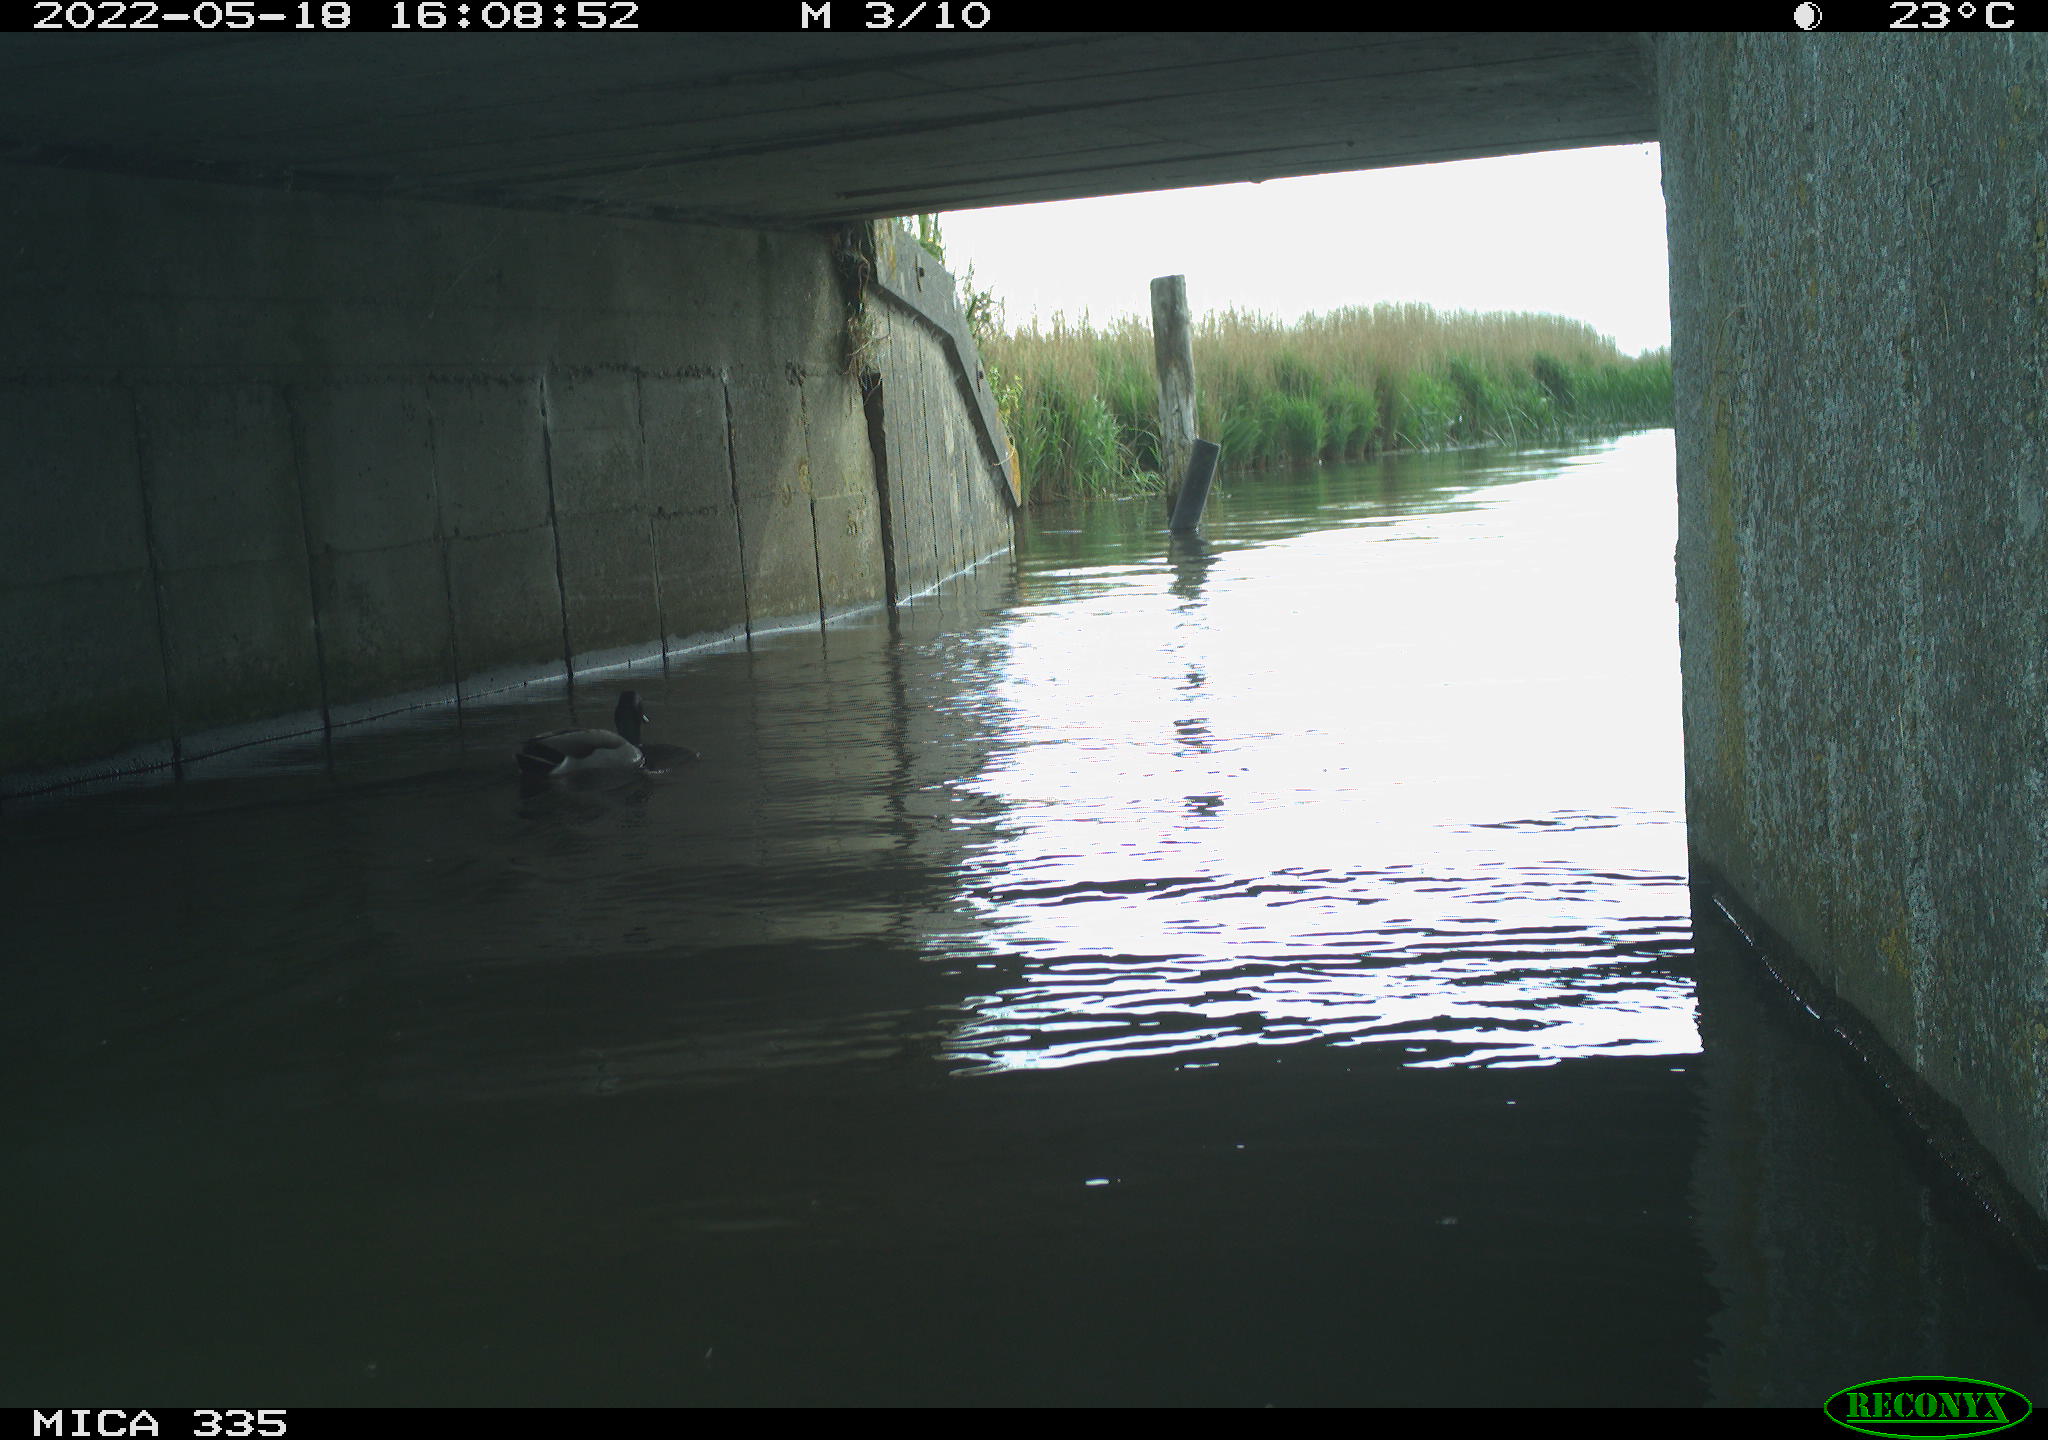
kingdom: Animalia
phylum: Chordata
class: Aves
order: Anseriformes
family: Anatidae
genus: Anas
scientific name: Anas platyrhynchos
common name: Mallard
